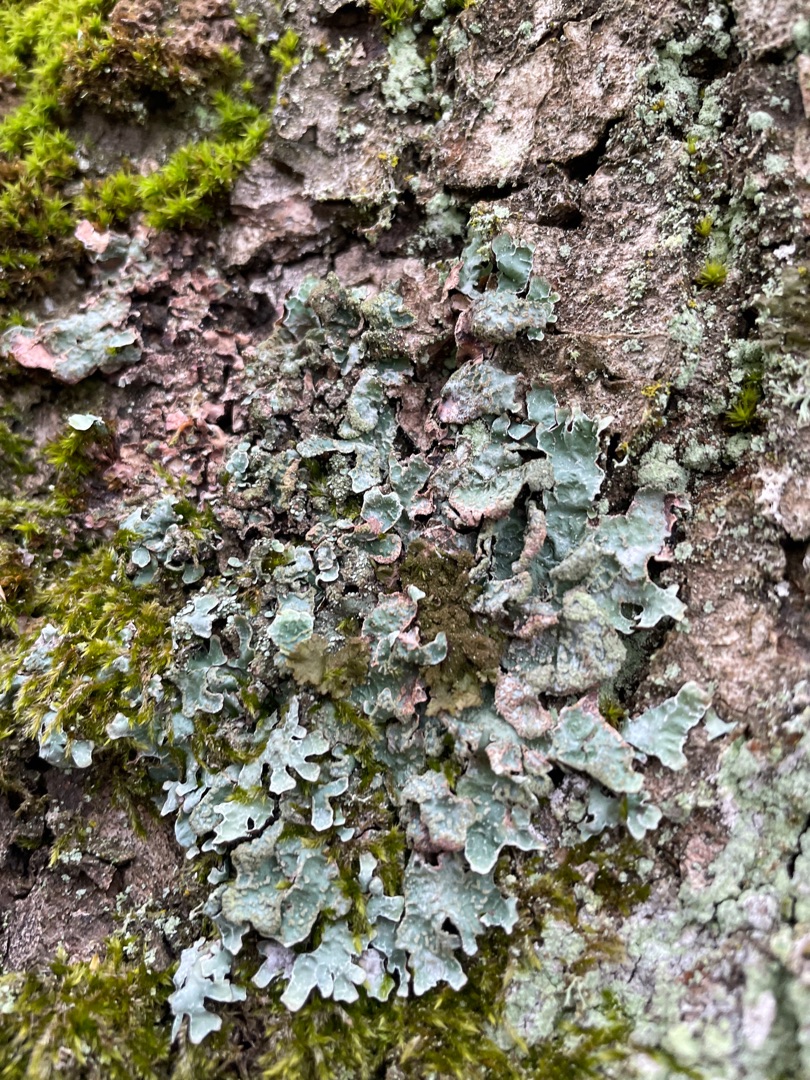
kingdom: Fungi
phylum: Ascomycota
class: Lecanoromycetes
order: Lecanorales
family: Parmeliaceae
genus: Parmelia
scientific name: Parmelia sulcata
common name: Rynket skållav
